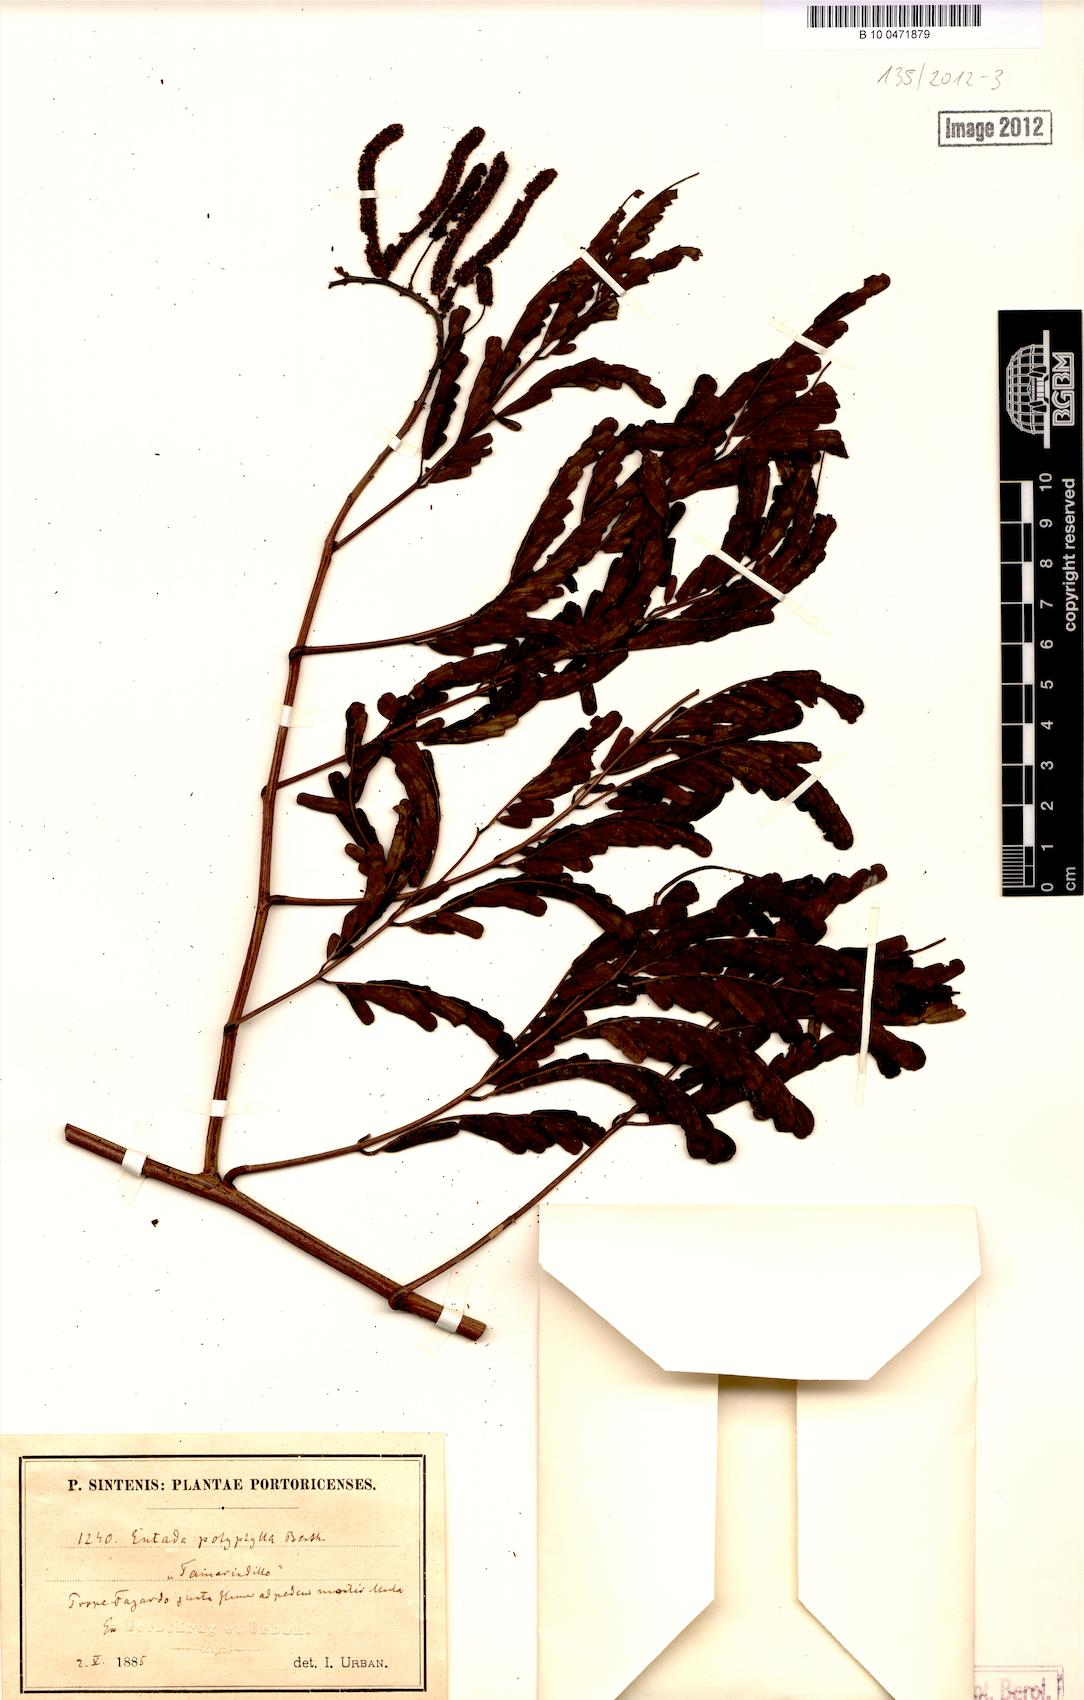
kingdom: Plantae
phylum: Tracheophyta
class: Magnoliopsida
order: Fabales
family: Fabaceae
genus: Entada
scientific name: Entada polyphylla
